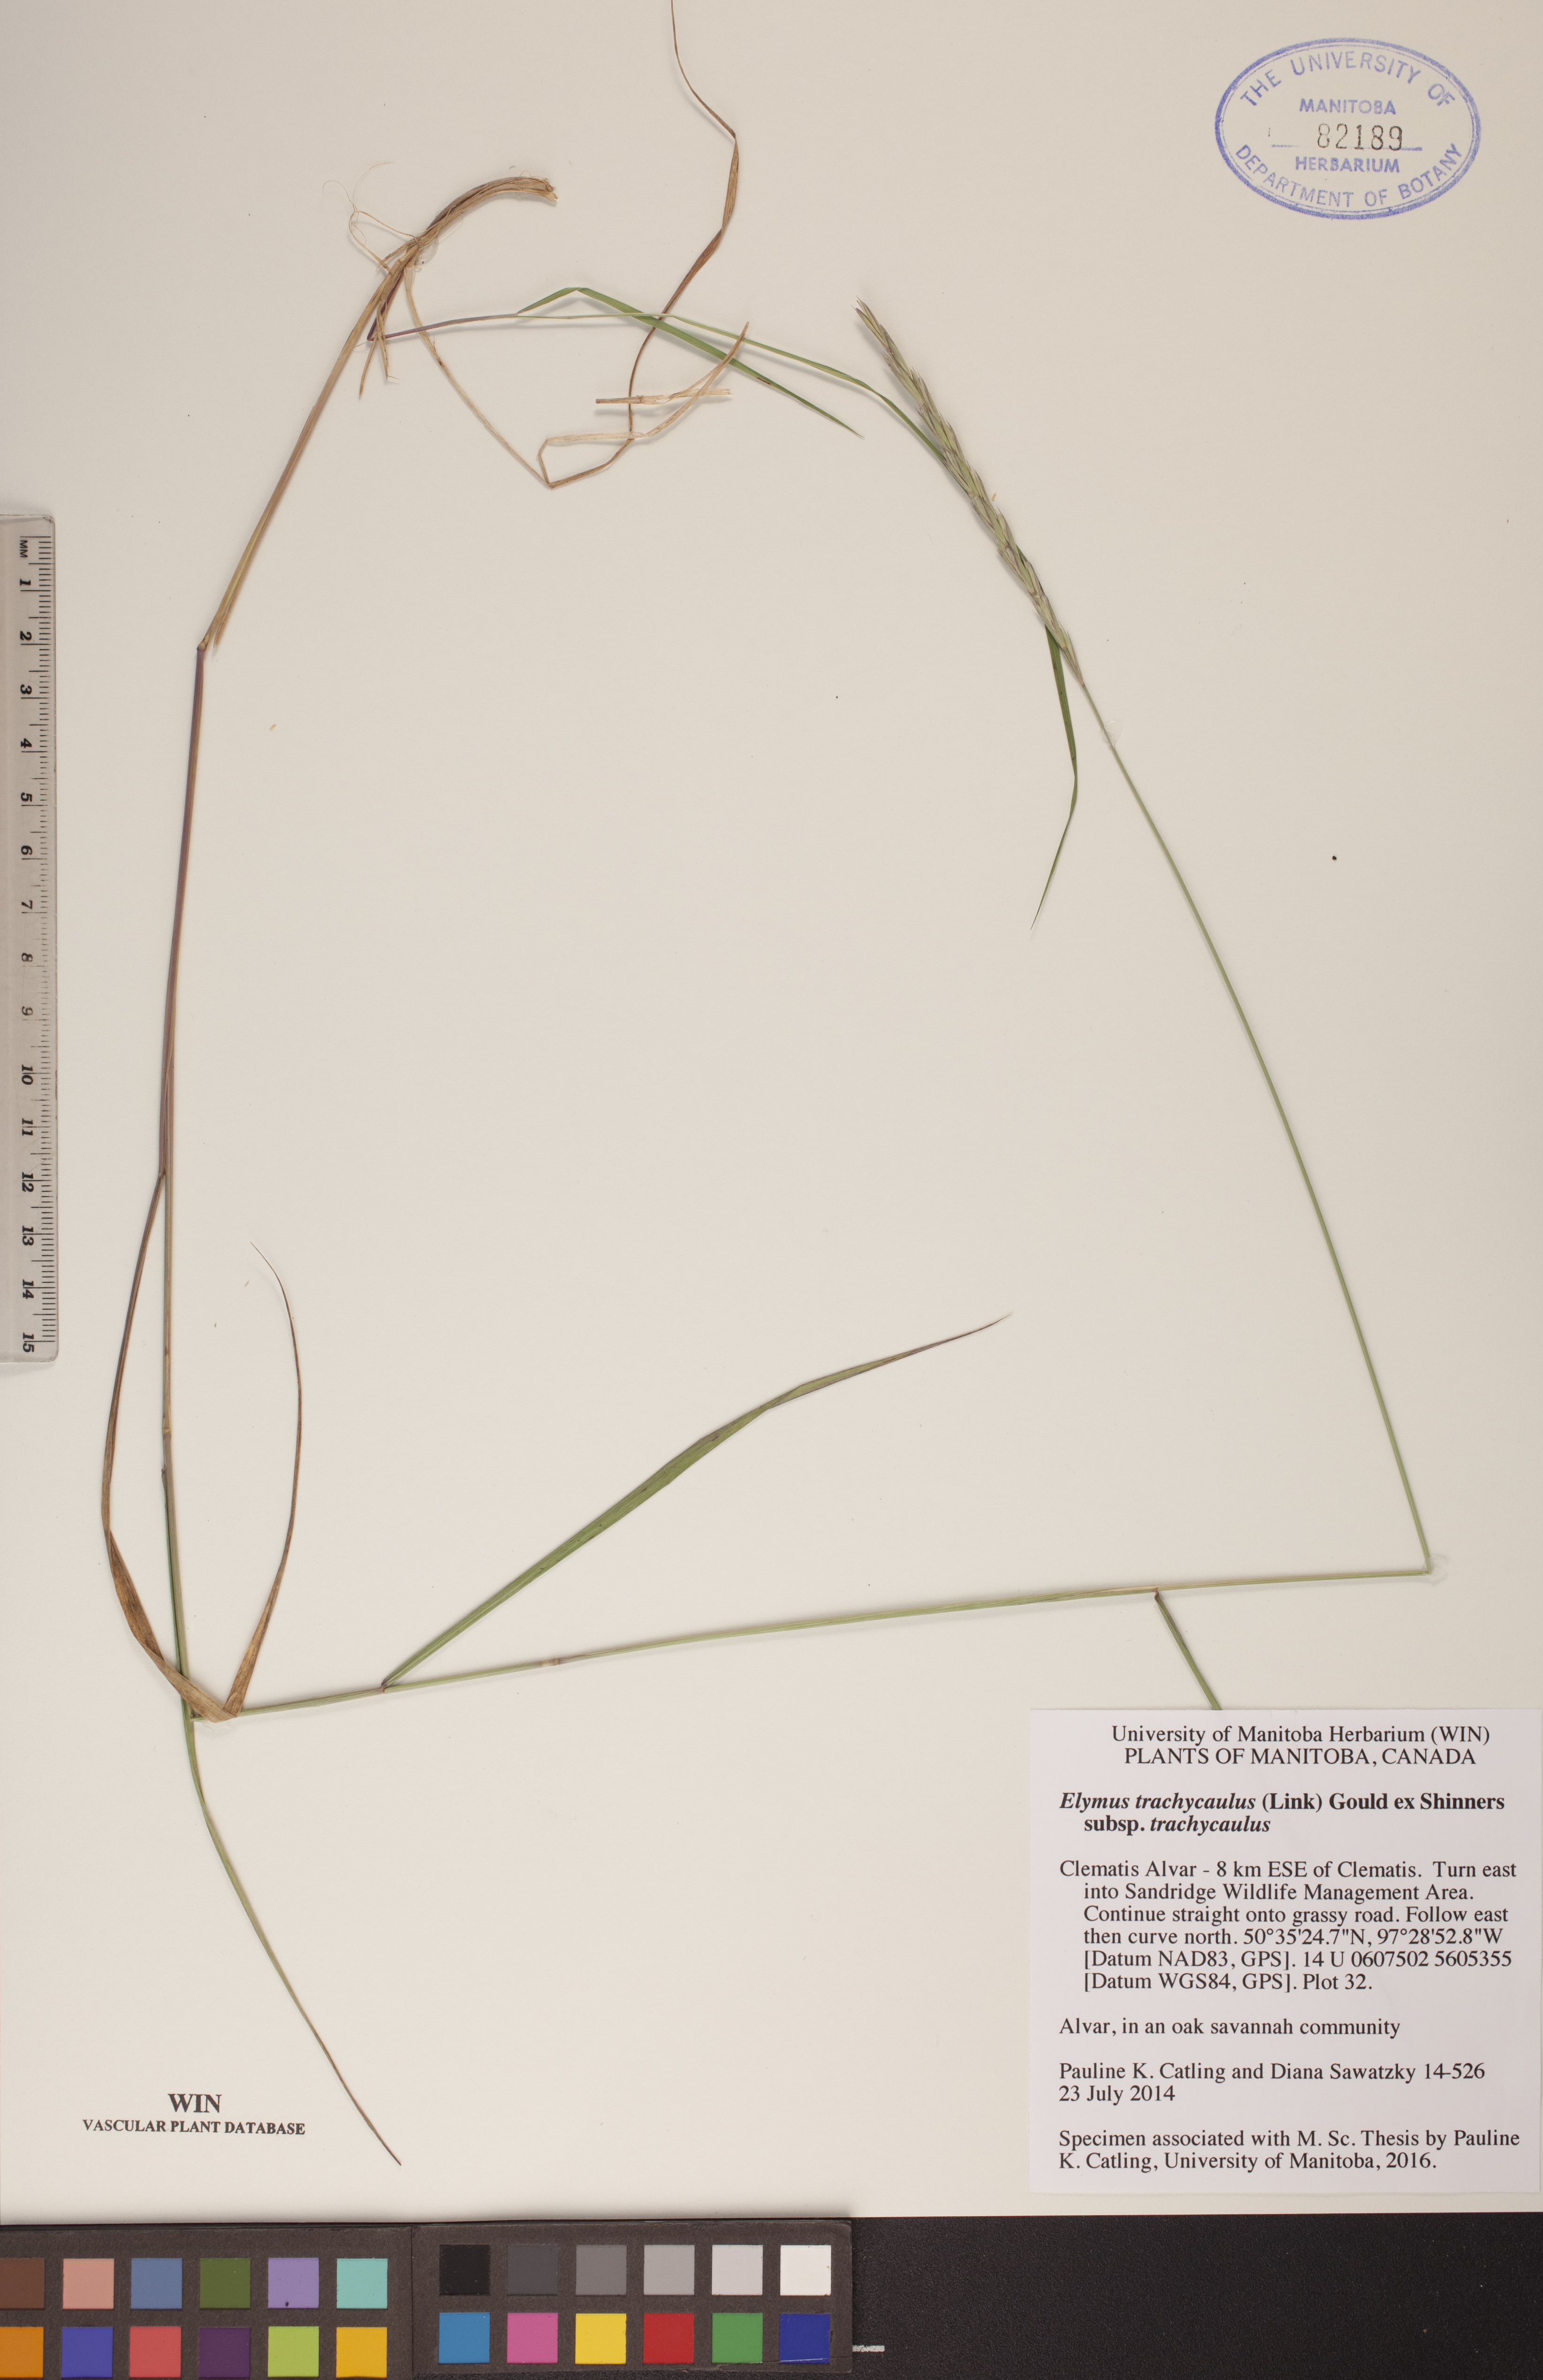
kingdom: Plantae
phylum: Tracheophyta
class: Liliopsida
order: Poales
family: Poaceae
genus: Elymus
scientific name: Elymus violaceus
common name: Arctic wheatgrass
